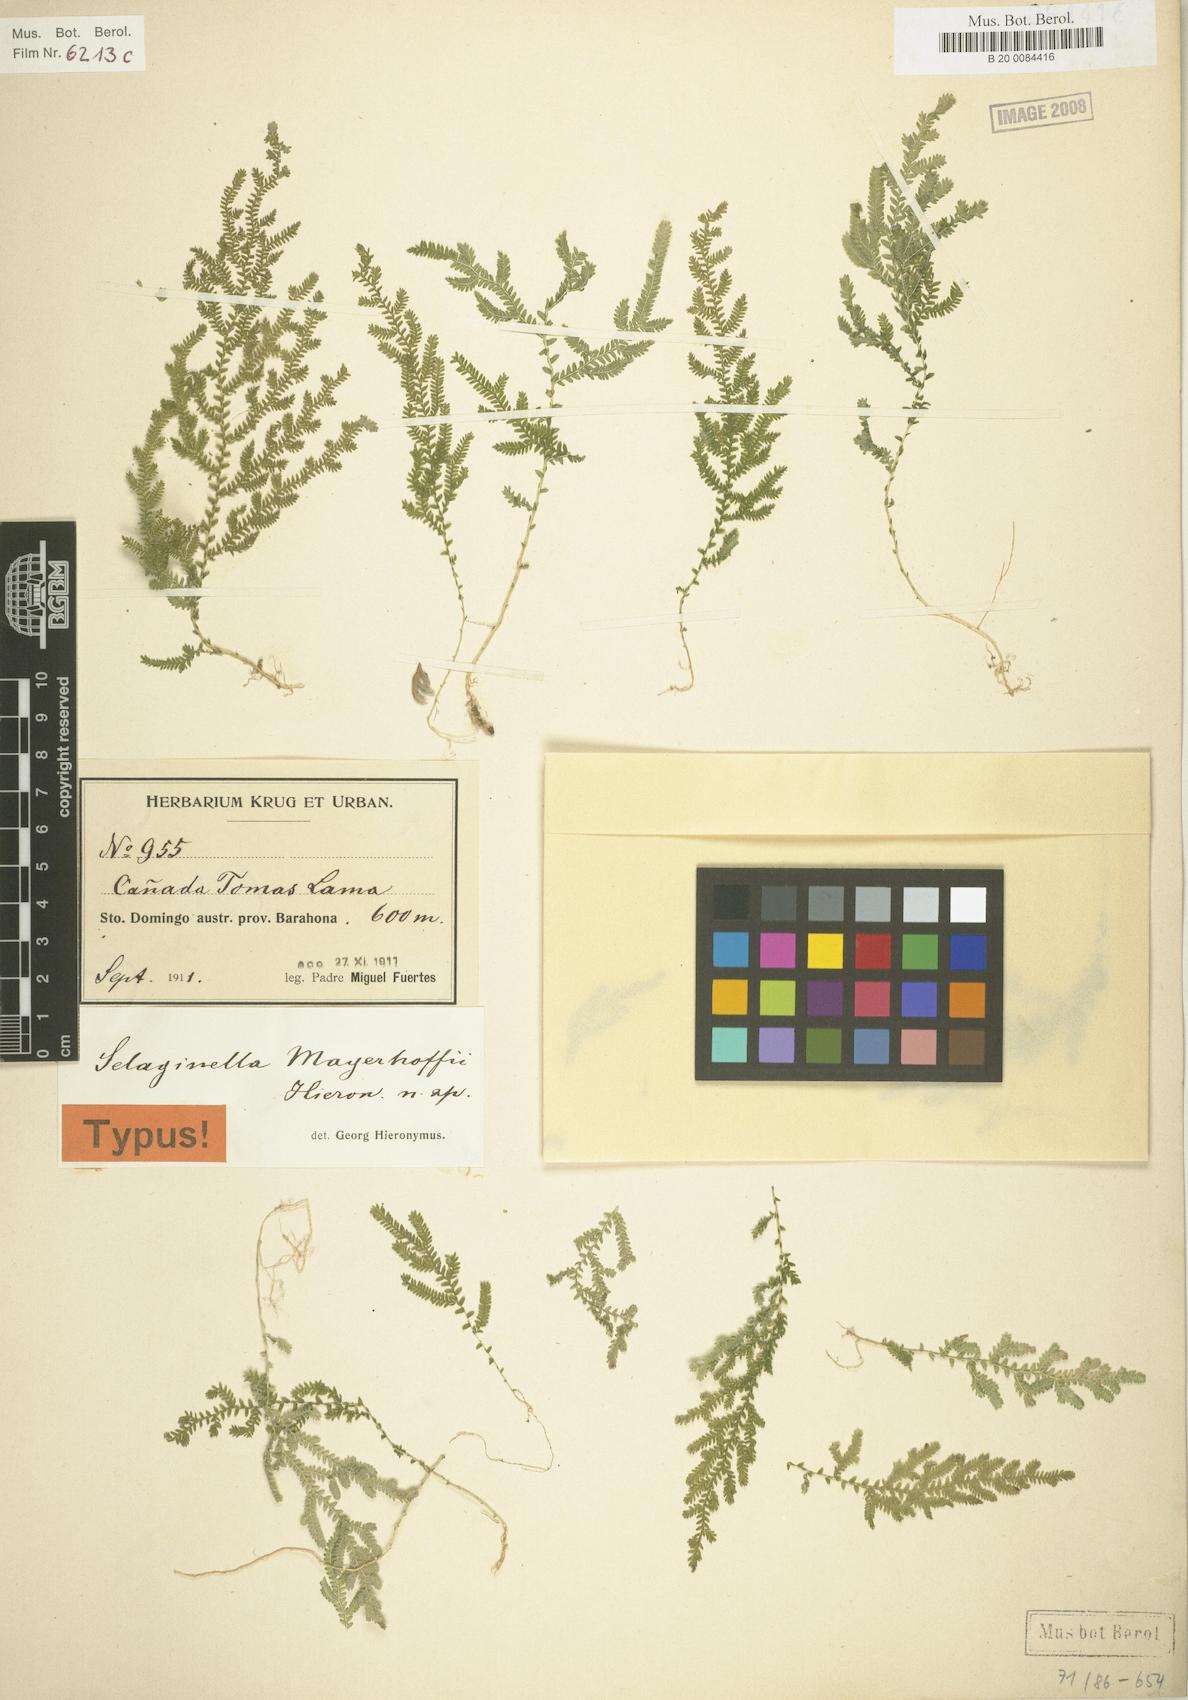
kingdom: Plantae
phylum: Tracheophyta
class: Lycopodiopsida
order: Selaginellales
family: Selaginellaceae
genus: Selaginella
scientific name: Selaginella flabellum
